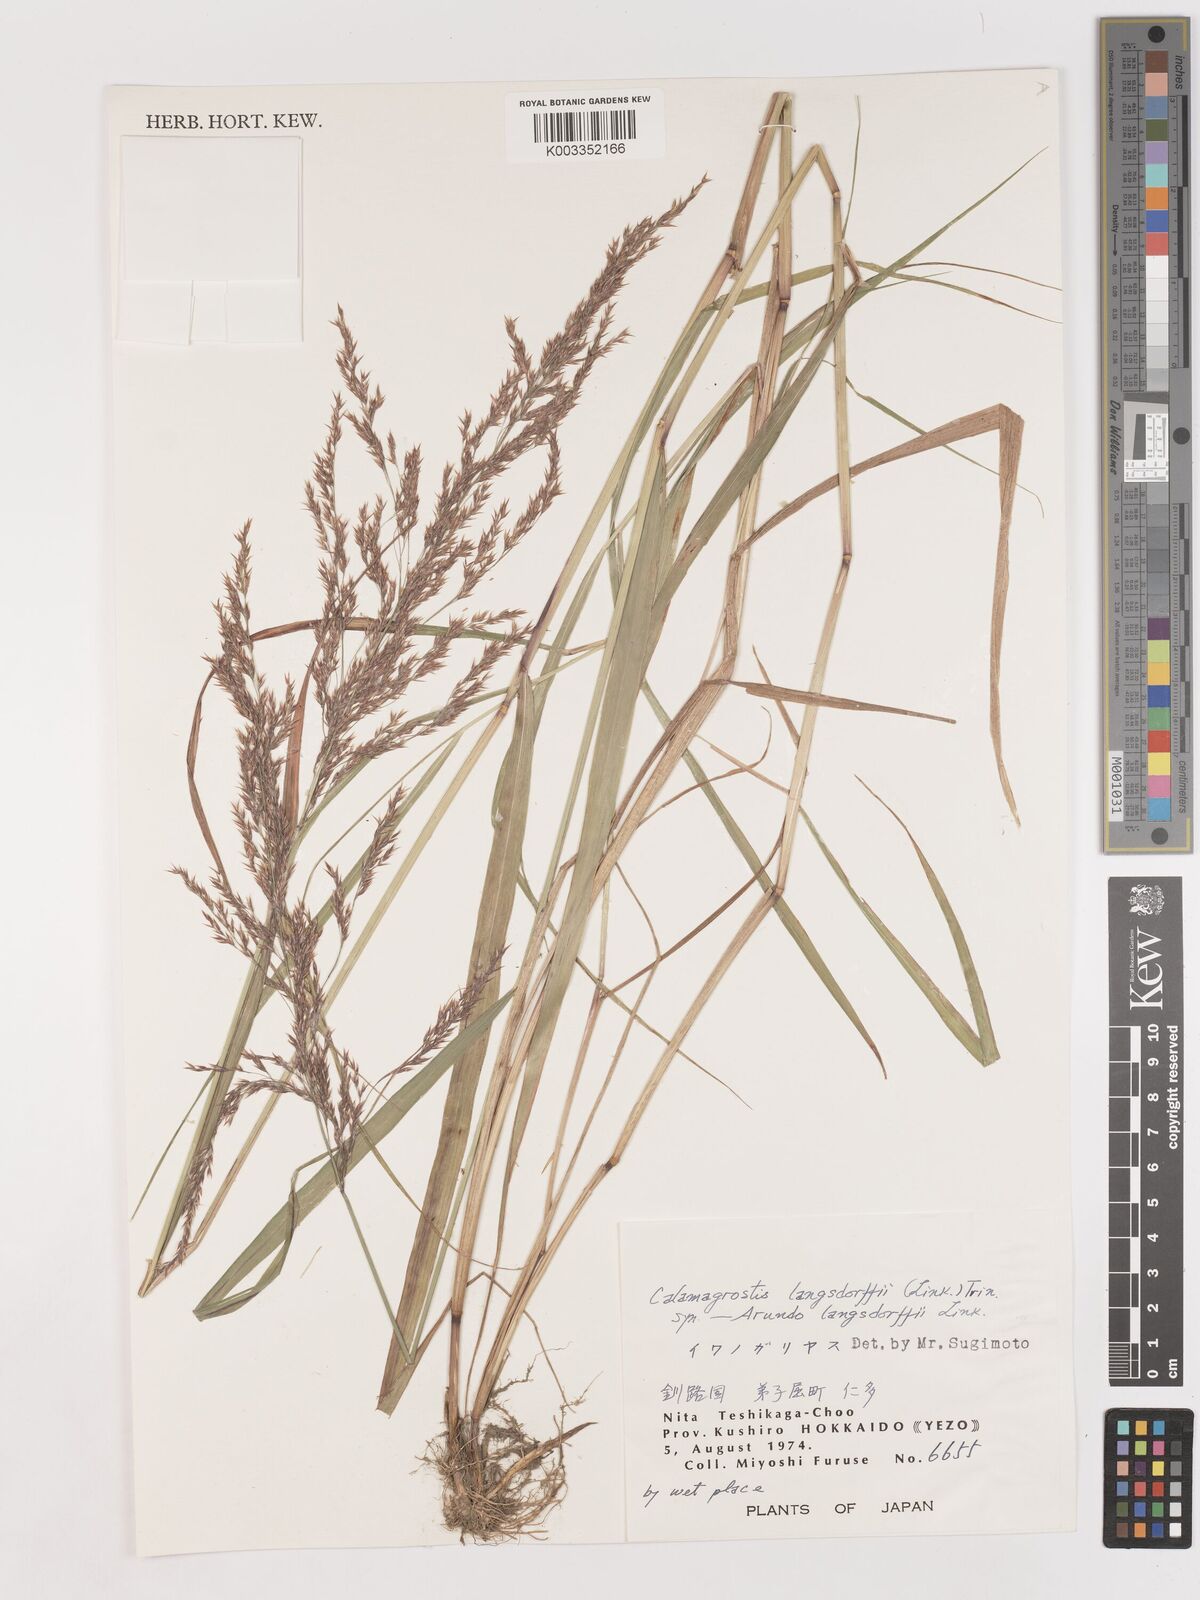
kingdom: Plantae
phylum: Tracheophyta
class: Liliopsida
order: Poales
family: Poaceae
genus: Calamagrostis
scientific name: Calamagrostis purpurea
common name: Scandinavian small-reed
